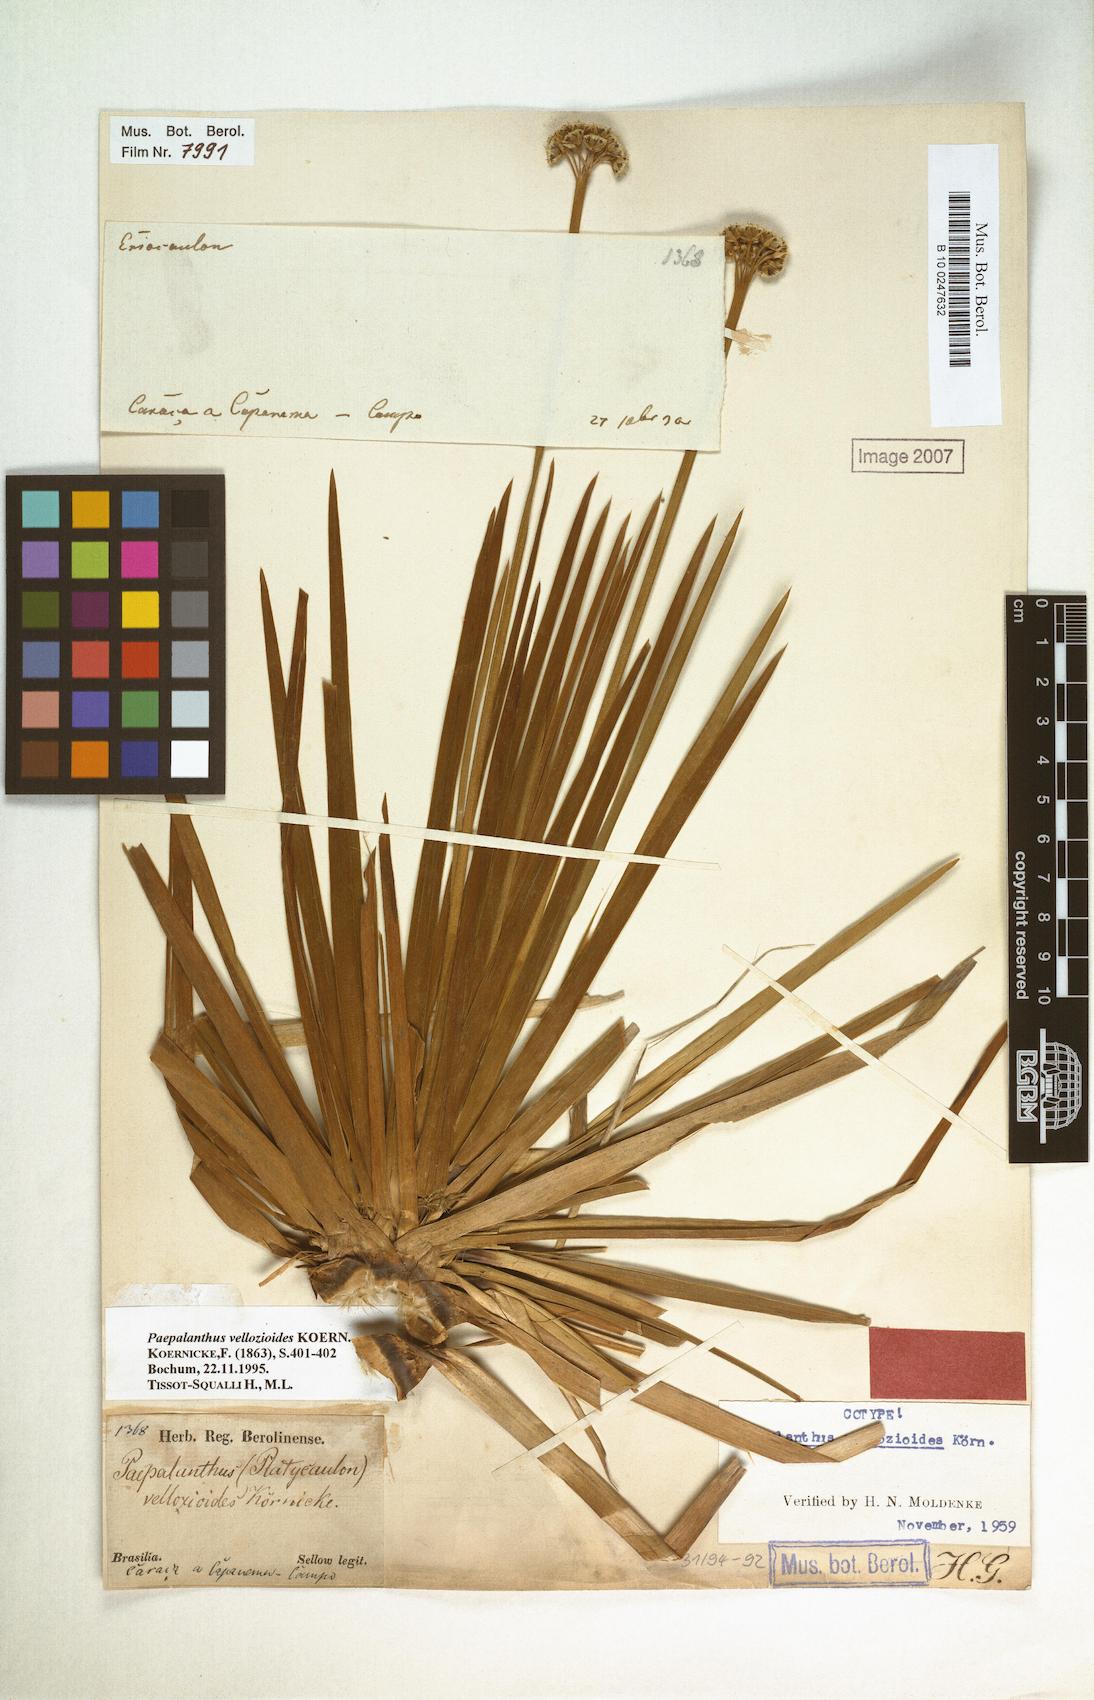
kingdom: Plantae
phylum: Tracheophyta
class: Liliopsida
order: Poales
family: Eriocaulaceae
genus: Paepalanthus
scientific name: Paepalanthus vellozioides
